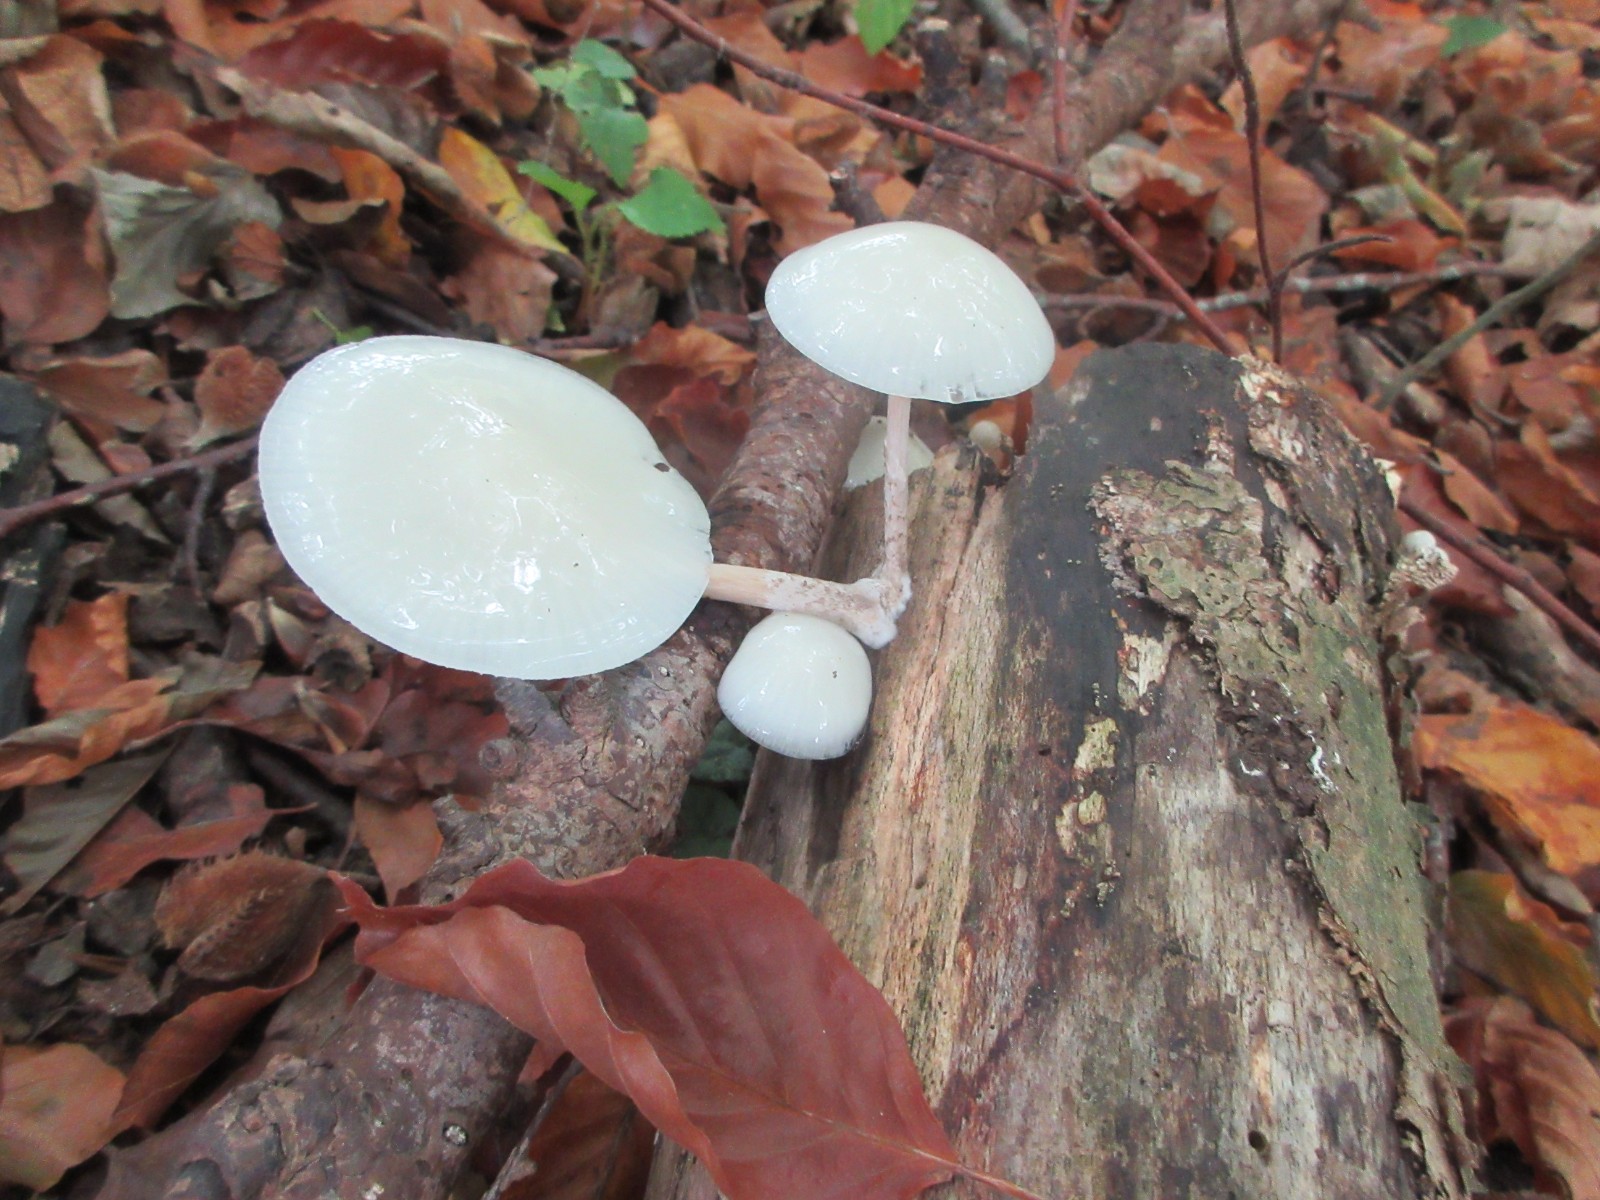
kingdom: Fungi
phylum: Basidiomycota
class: Agaricomycetes
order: Agaricales
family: Physalacriaceae
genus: Mucidula
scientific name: Mucidula mucida
